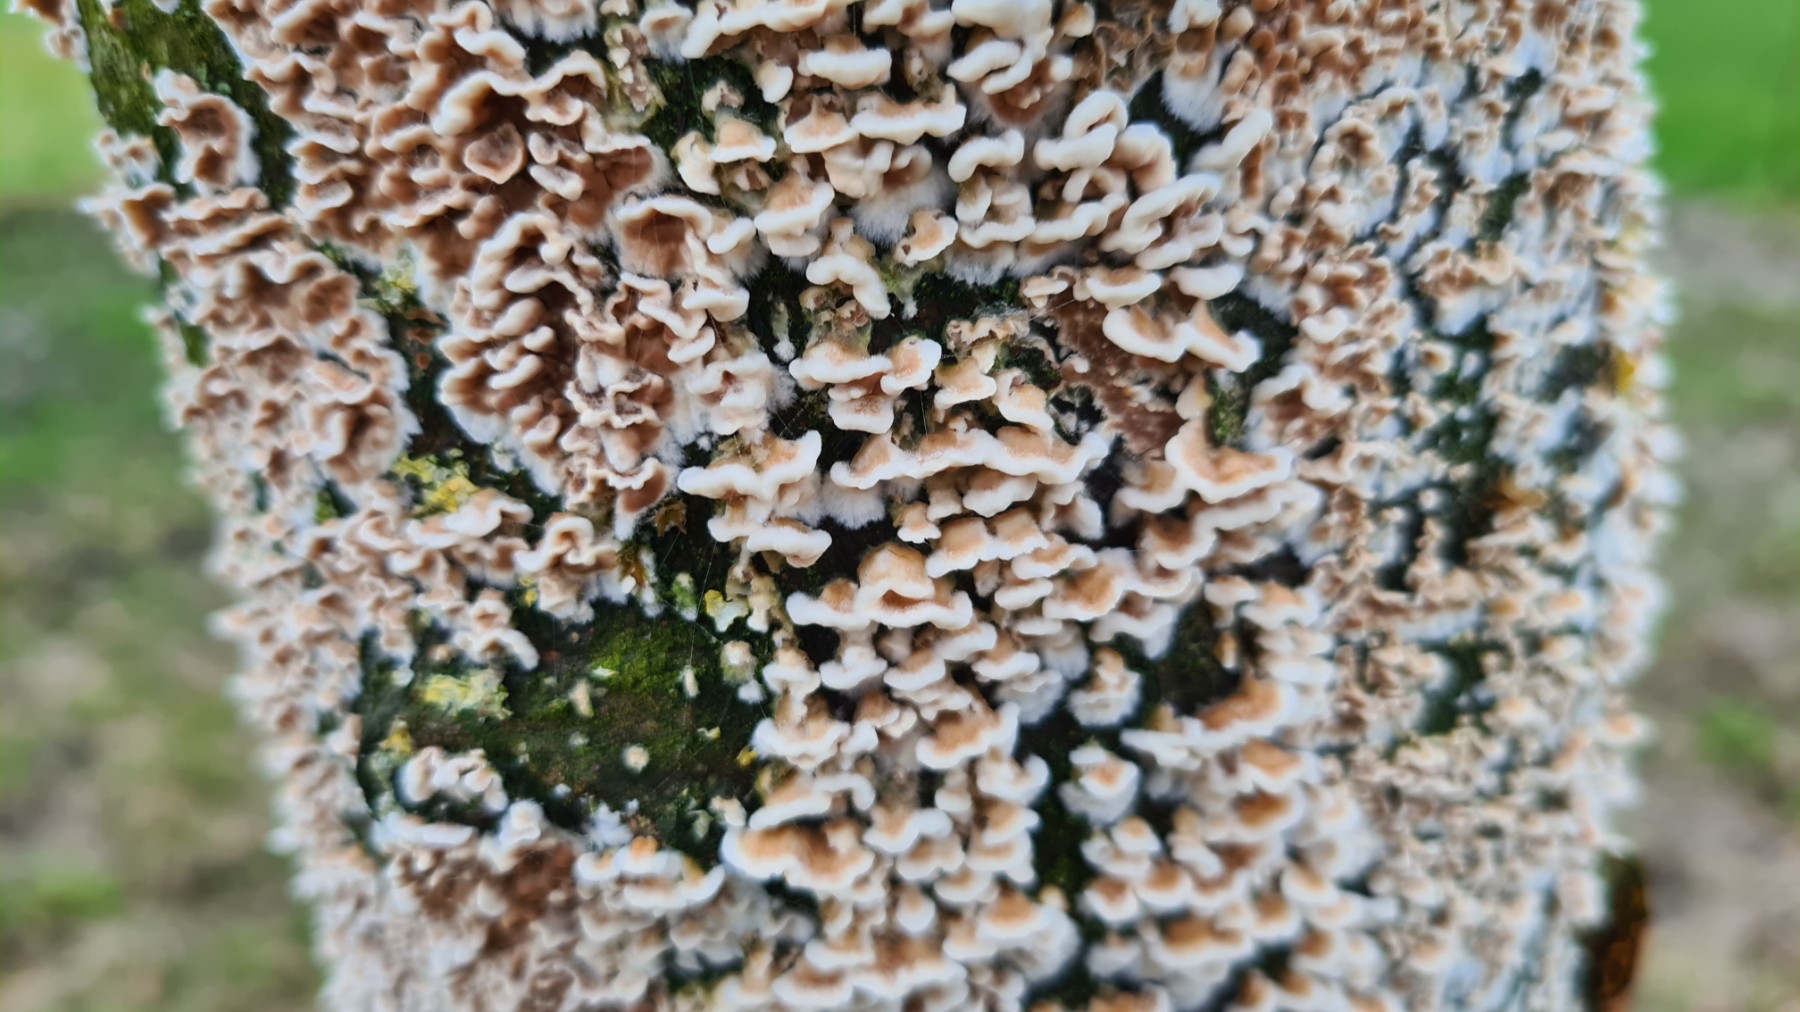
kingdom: Fungi
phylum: Basidiomycota
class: Agaricomycetes
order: Agaricales
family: Cyphellaceae
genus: Chondrostereum
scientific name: Chondrostereum purpureum
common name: purpurlædersvamp
